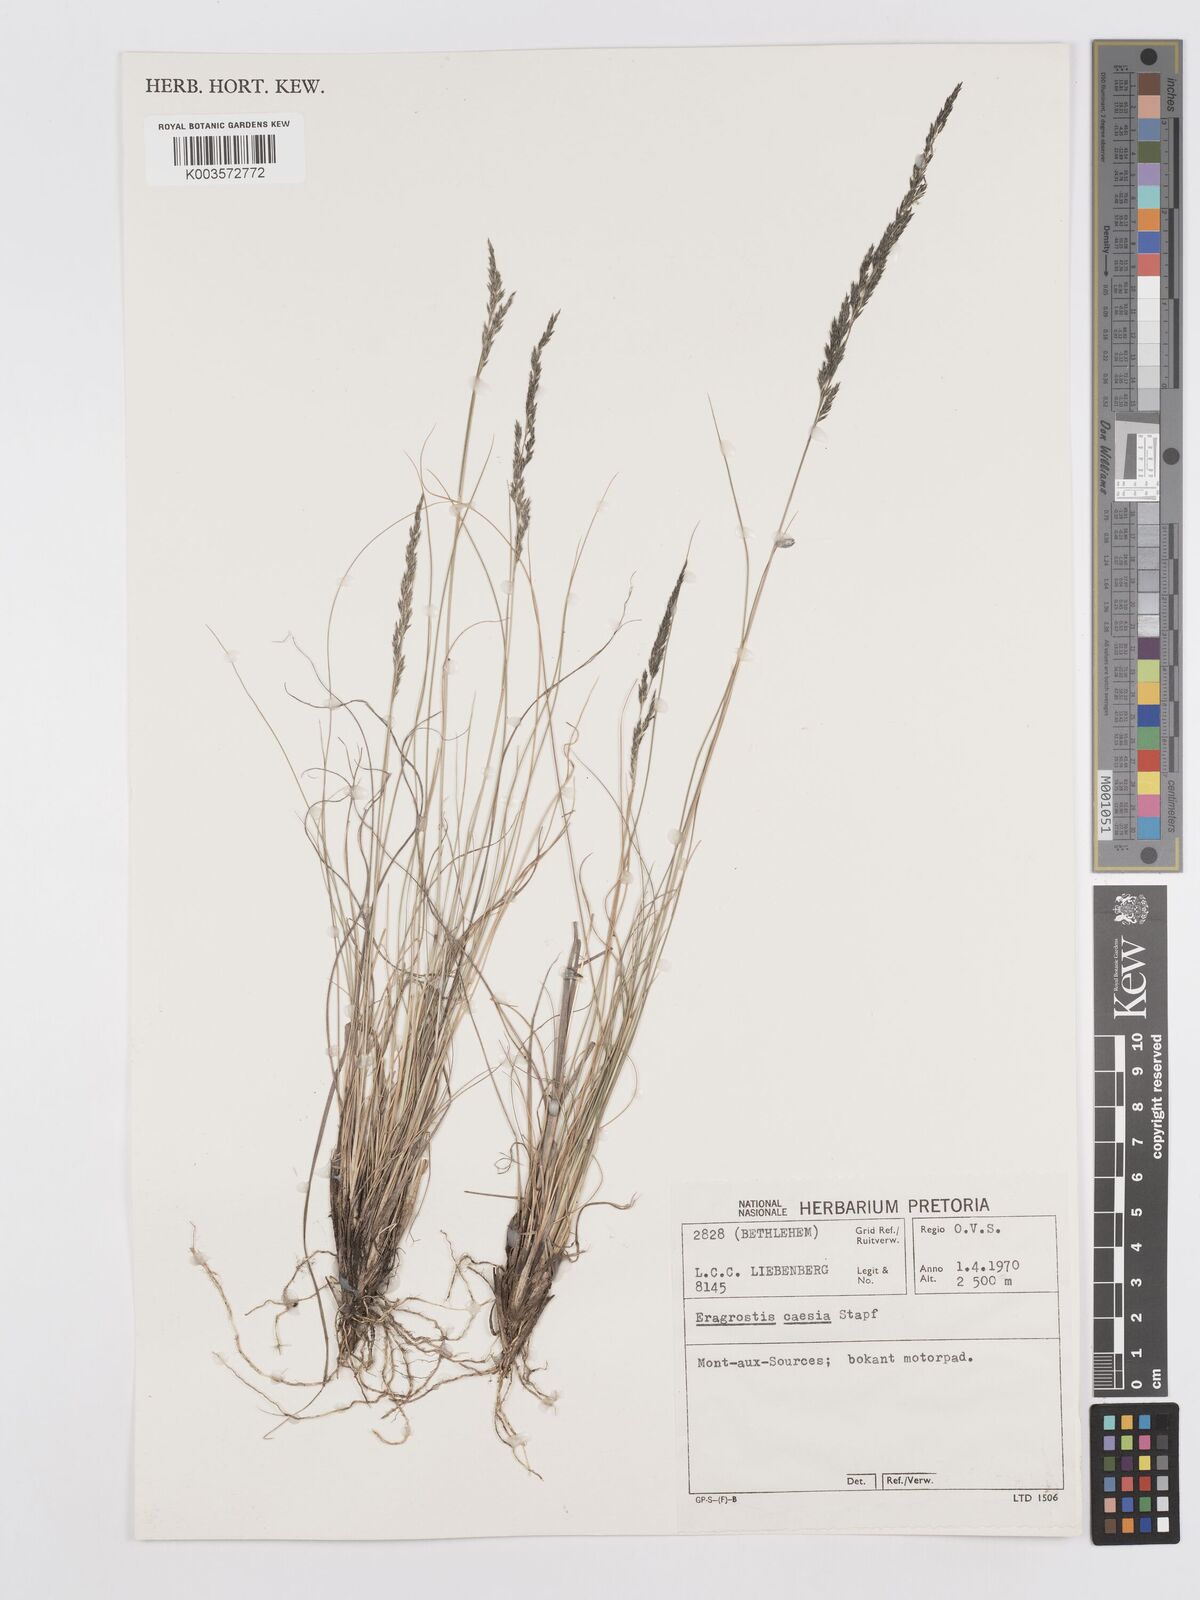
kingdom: Plantae
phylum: Tracheophyta
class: Liliopsida
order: Poales
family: Poaceae
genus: Eragrostis
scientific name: Eragrostis caesia
